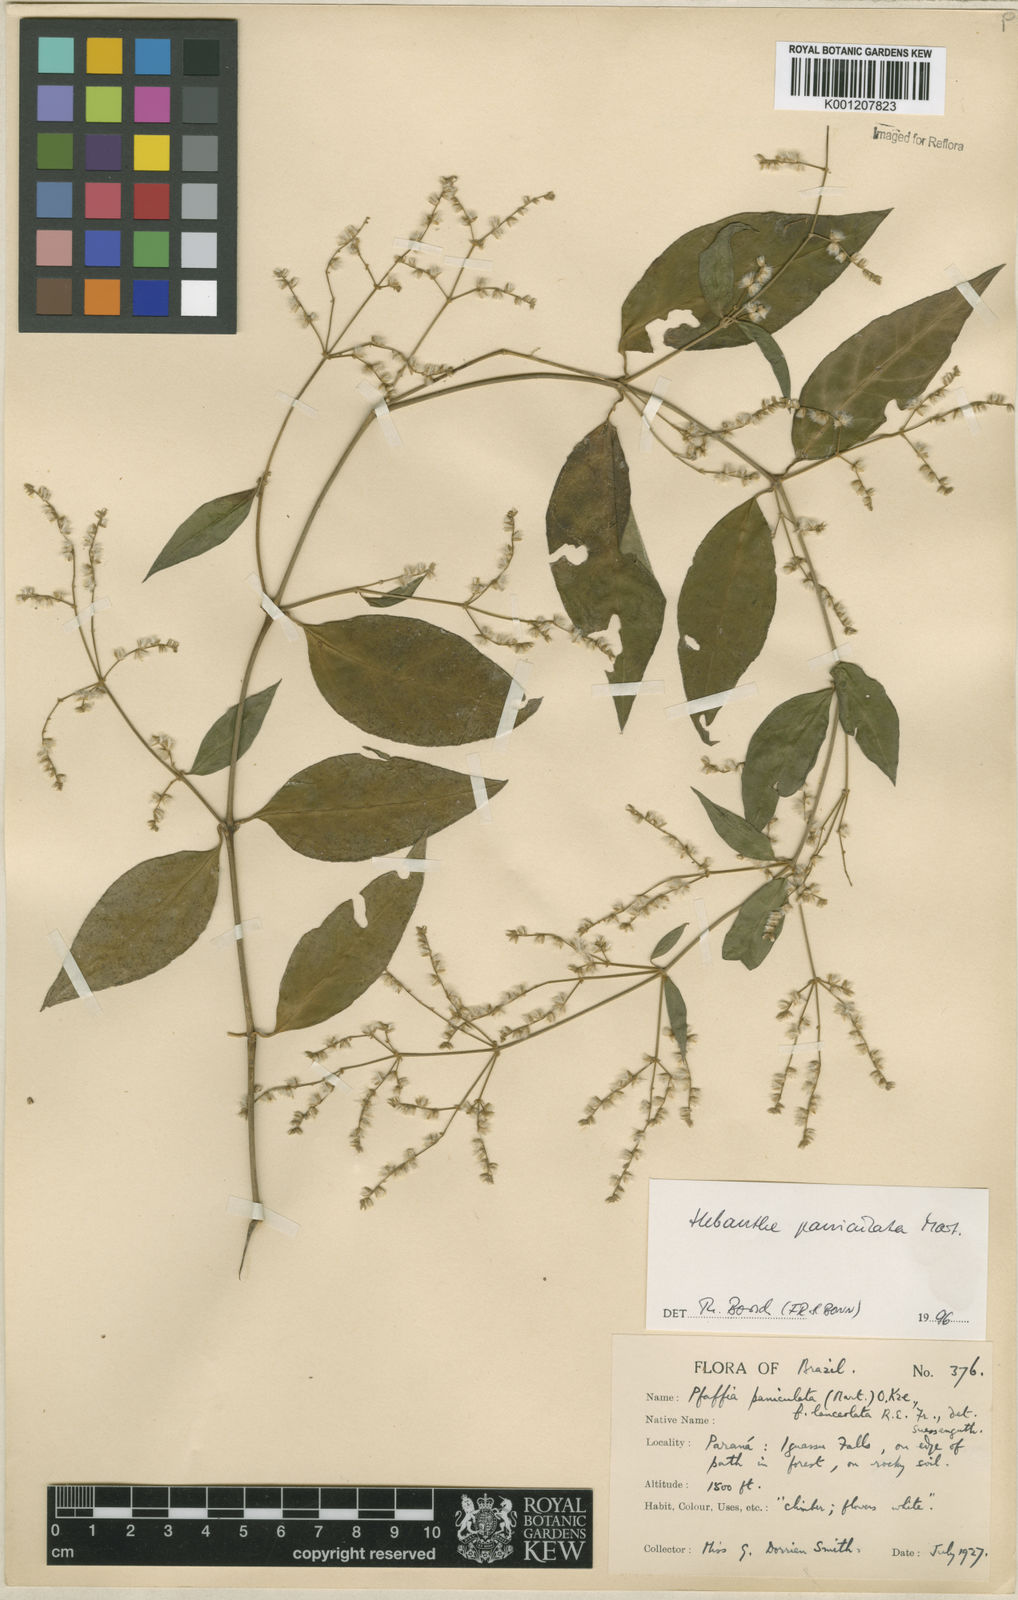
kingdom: Plantae
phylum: Tracheophyta
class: Magnoliopsida
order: Caryophyllales
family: Amaranthaceae
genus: Hebanthe
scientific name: Hebanthe erianthos
